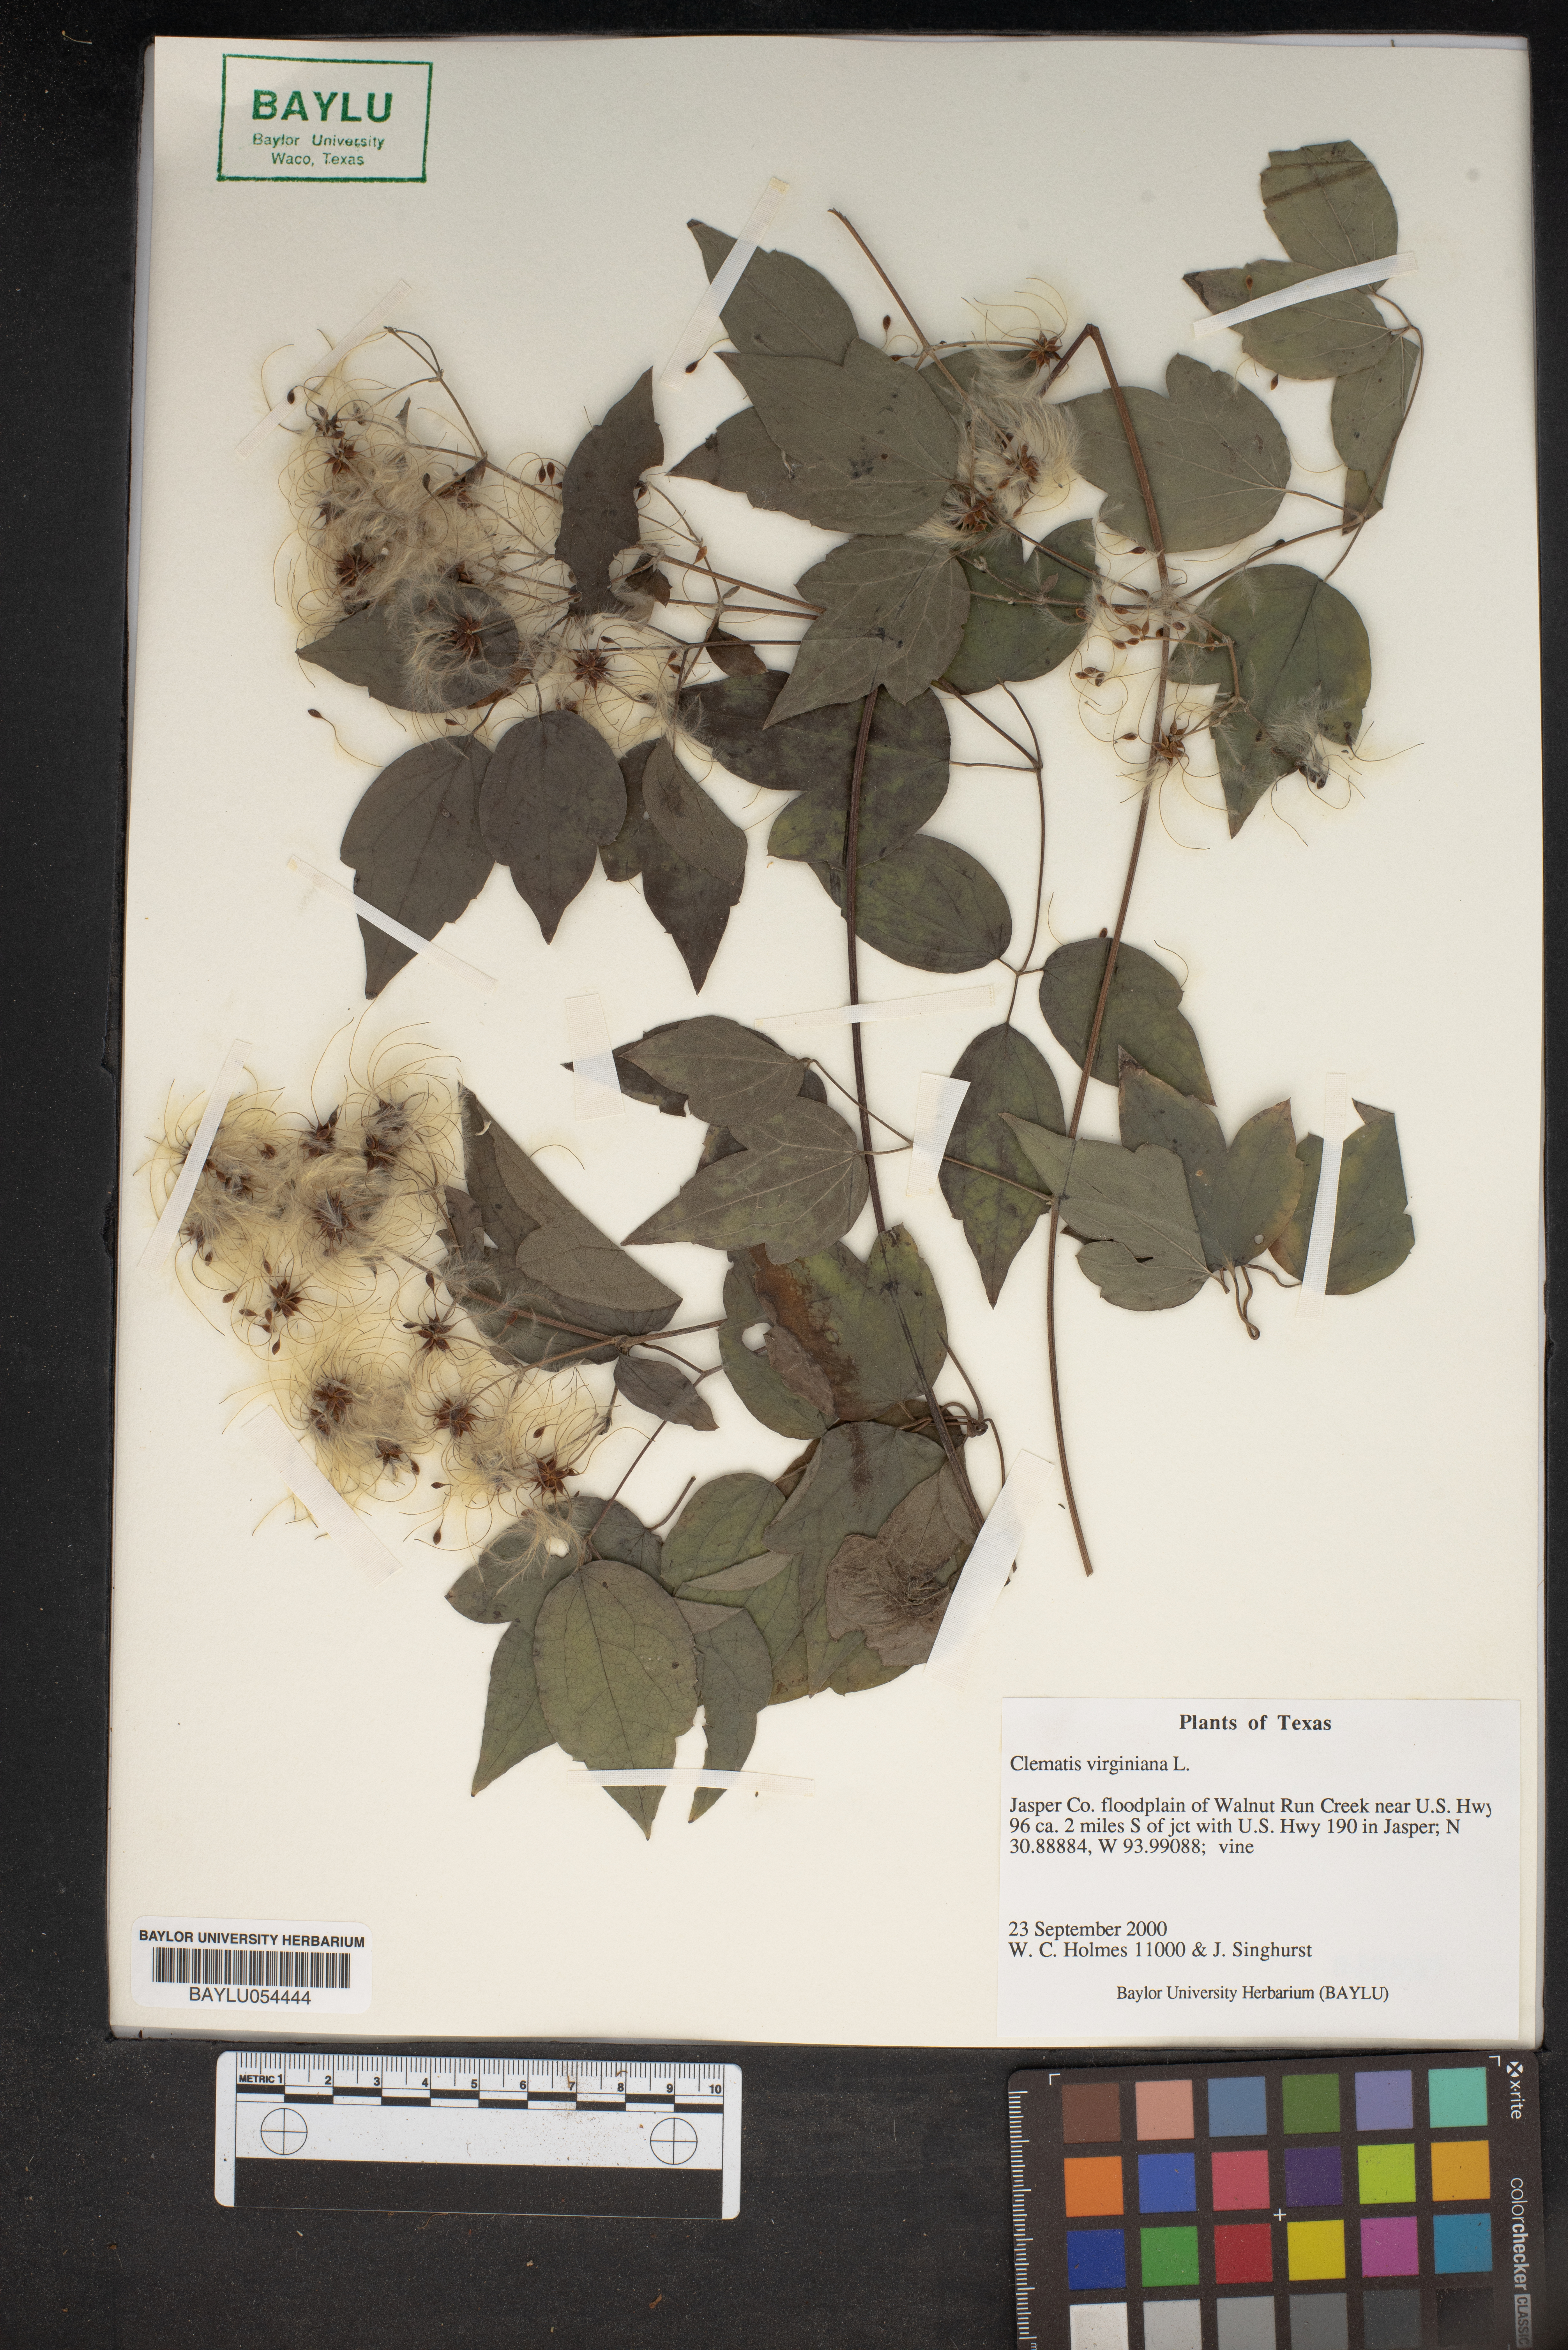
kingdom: Plantae
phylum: Tracheophyta
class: Magnoliopsida
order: Ranunculales
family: Ranunculaceae
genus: Clematis
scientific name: Clematis virginiana
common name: Virgin's-bower
